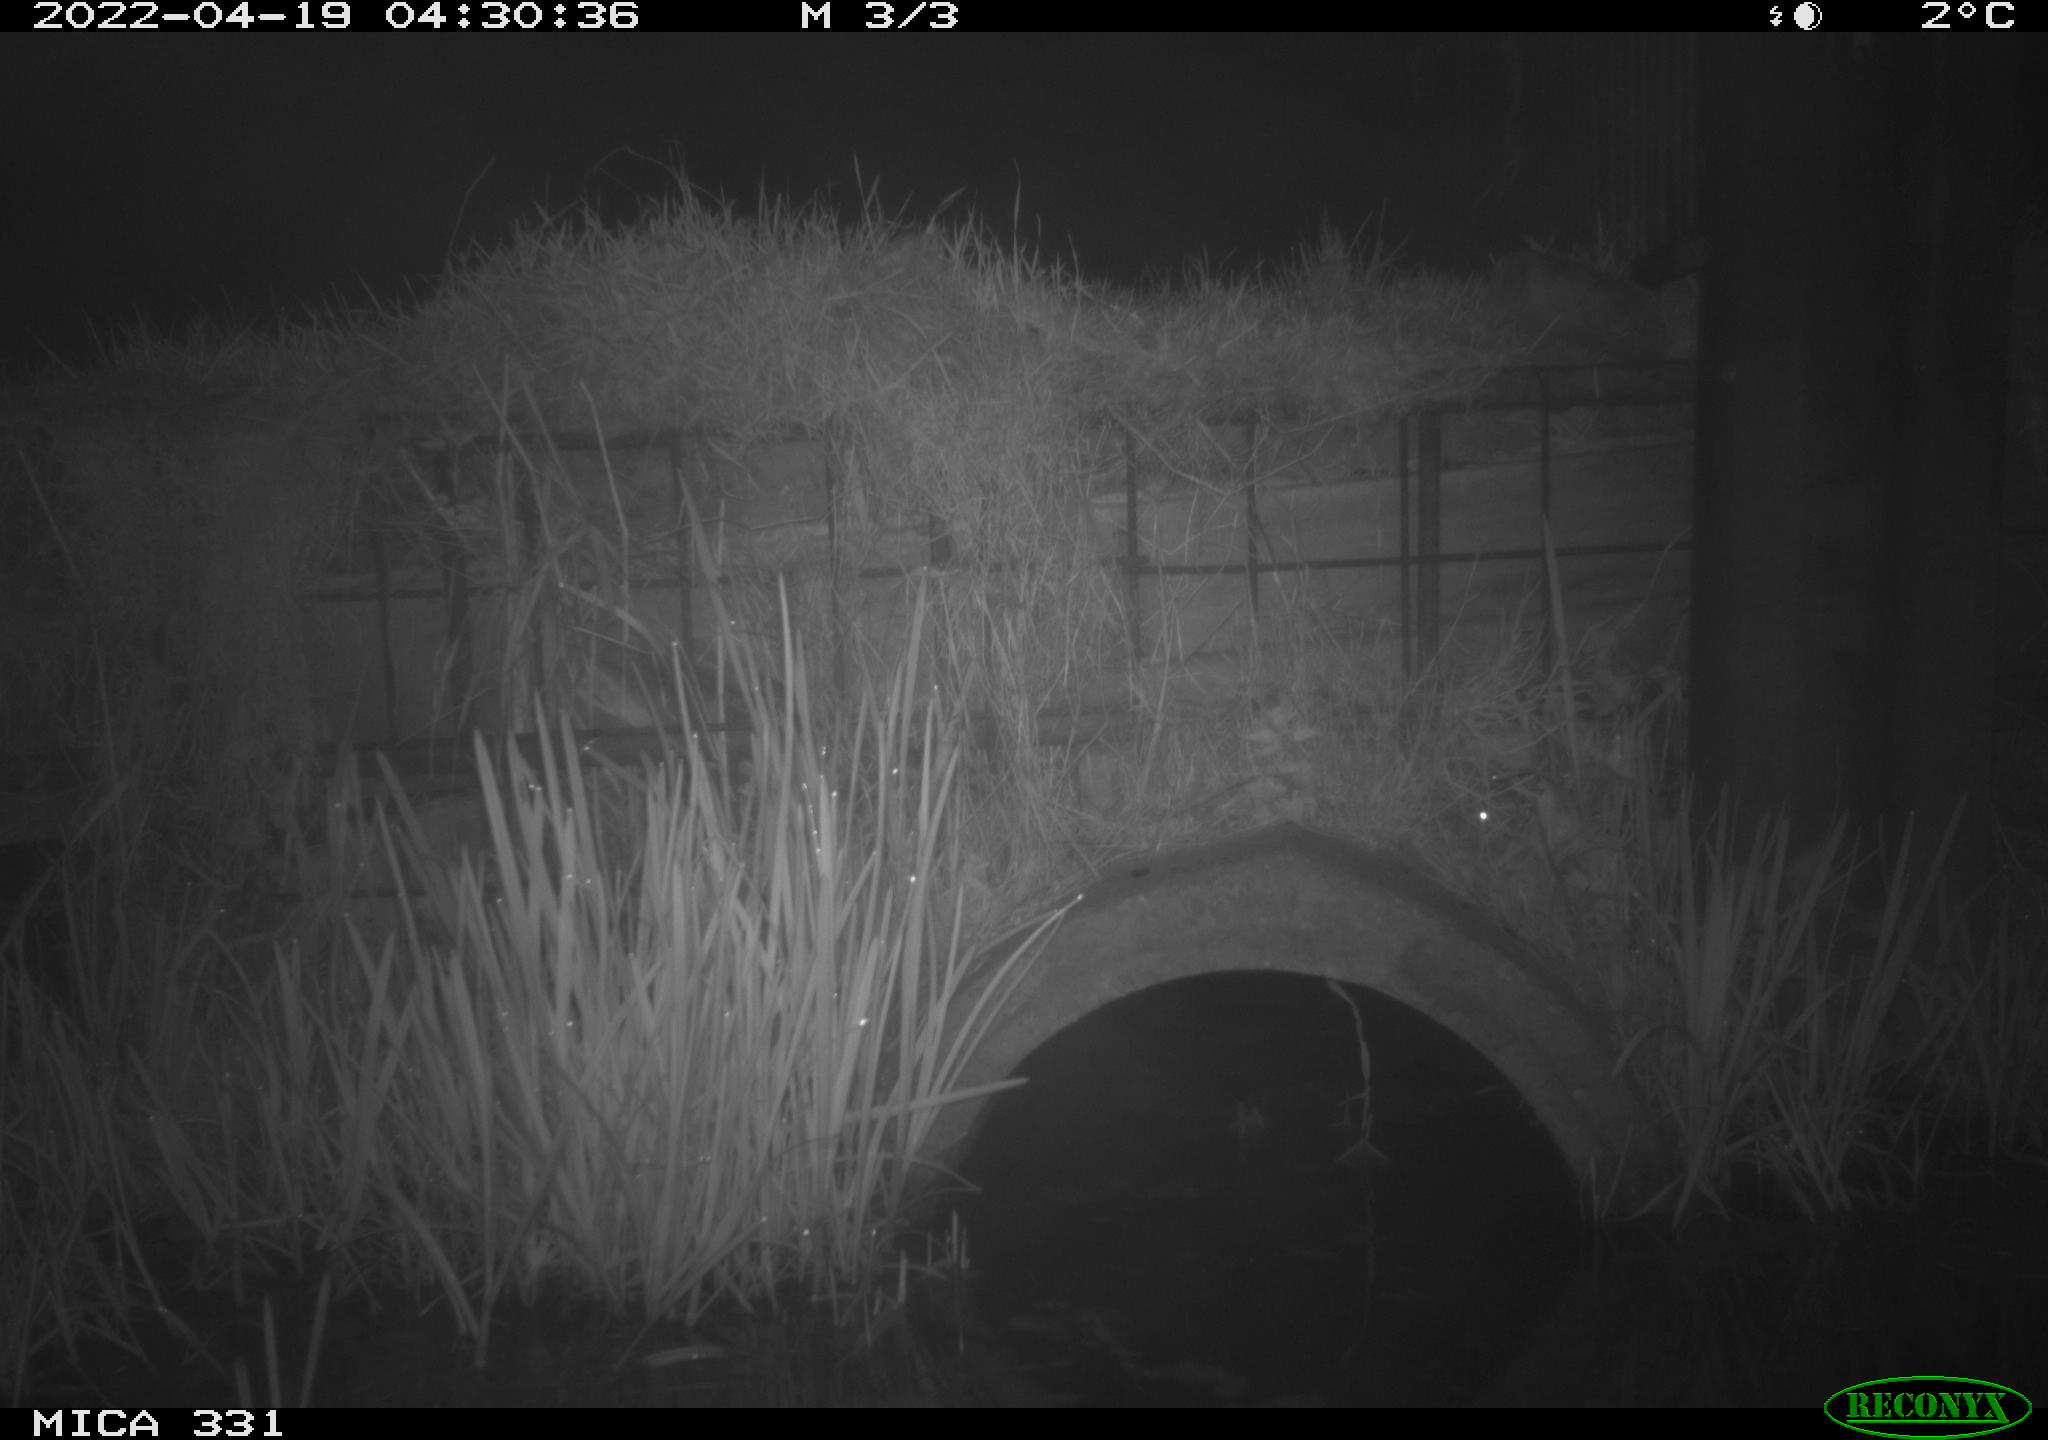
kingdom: Animalia
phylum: Chordata
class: Mammalia
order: Rodentia
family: Muridae
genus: Rattus
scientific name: Rattus norvegicus
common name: Brown rat
